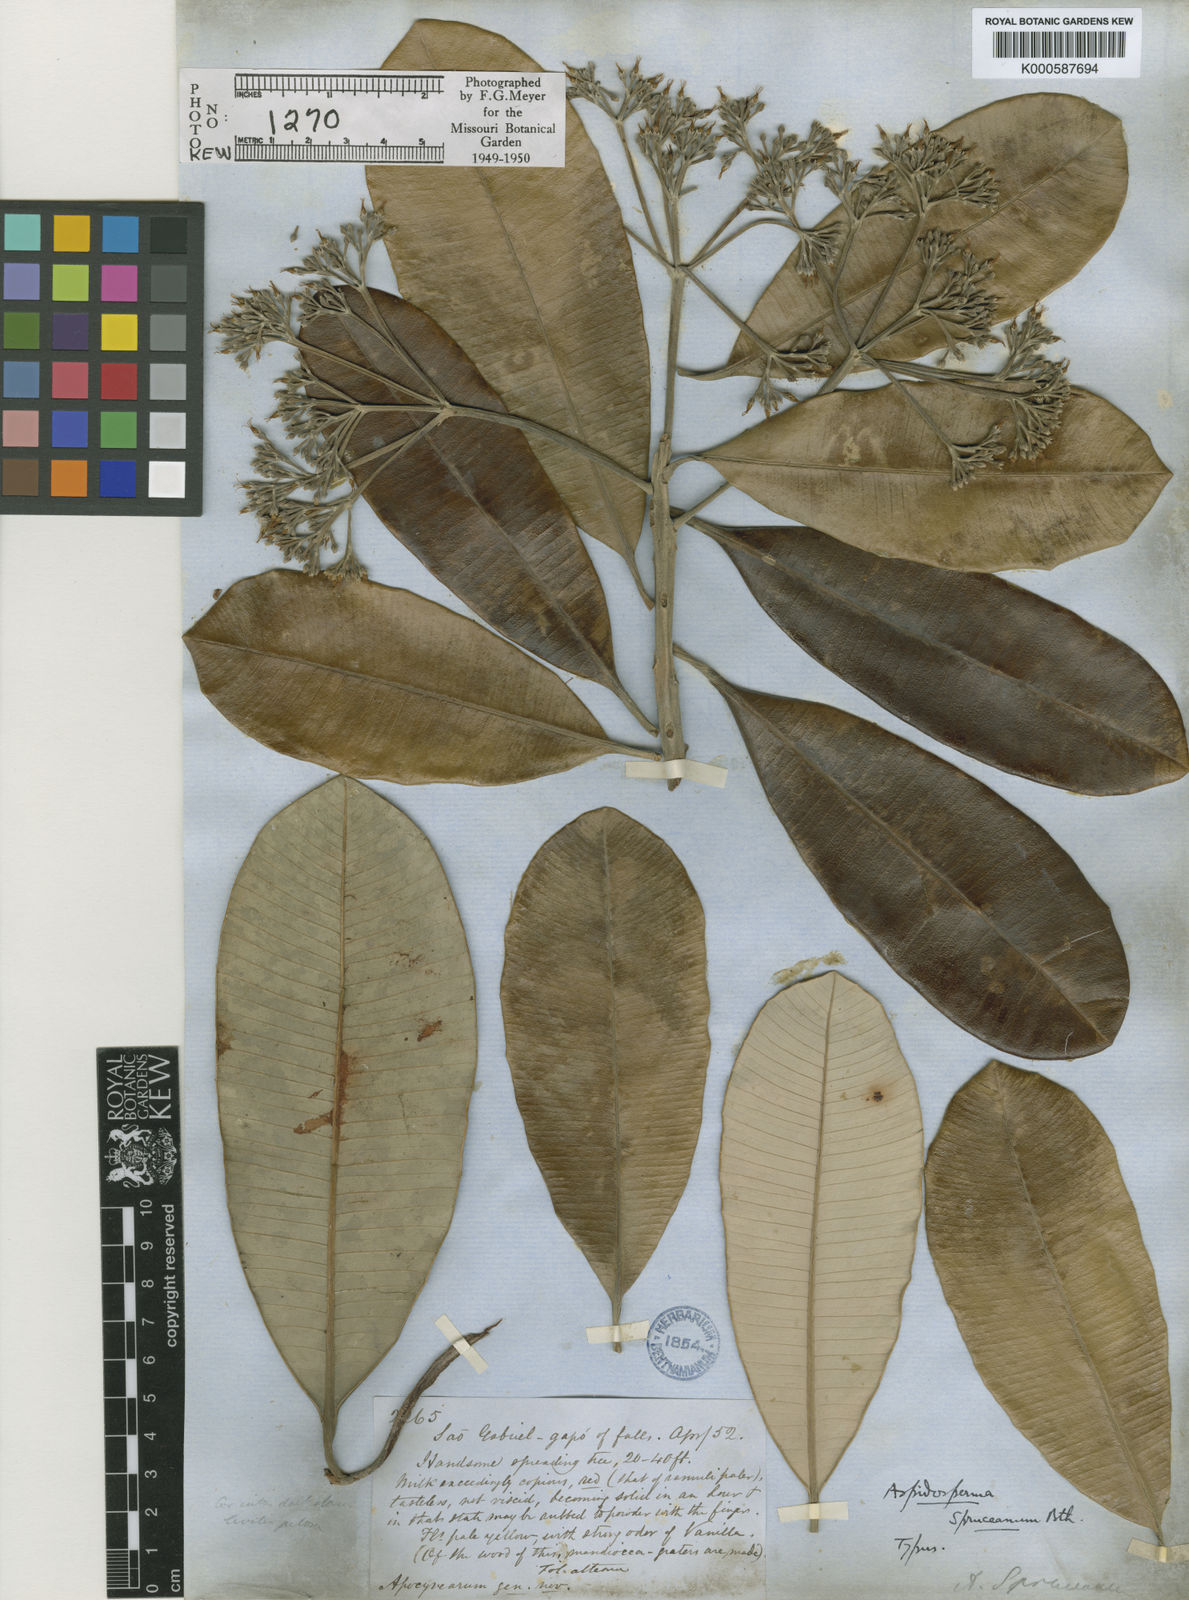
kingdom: Plantae
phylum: Tracheophyta
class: Magnoliopsida
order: Gentianales
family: Apocynaceae
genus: Aspidosperma
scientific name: Aspidosperma
